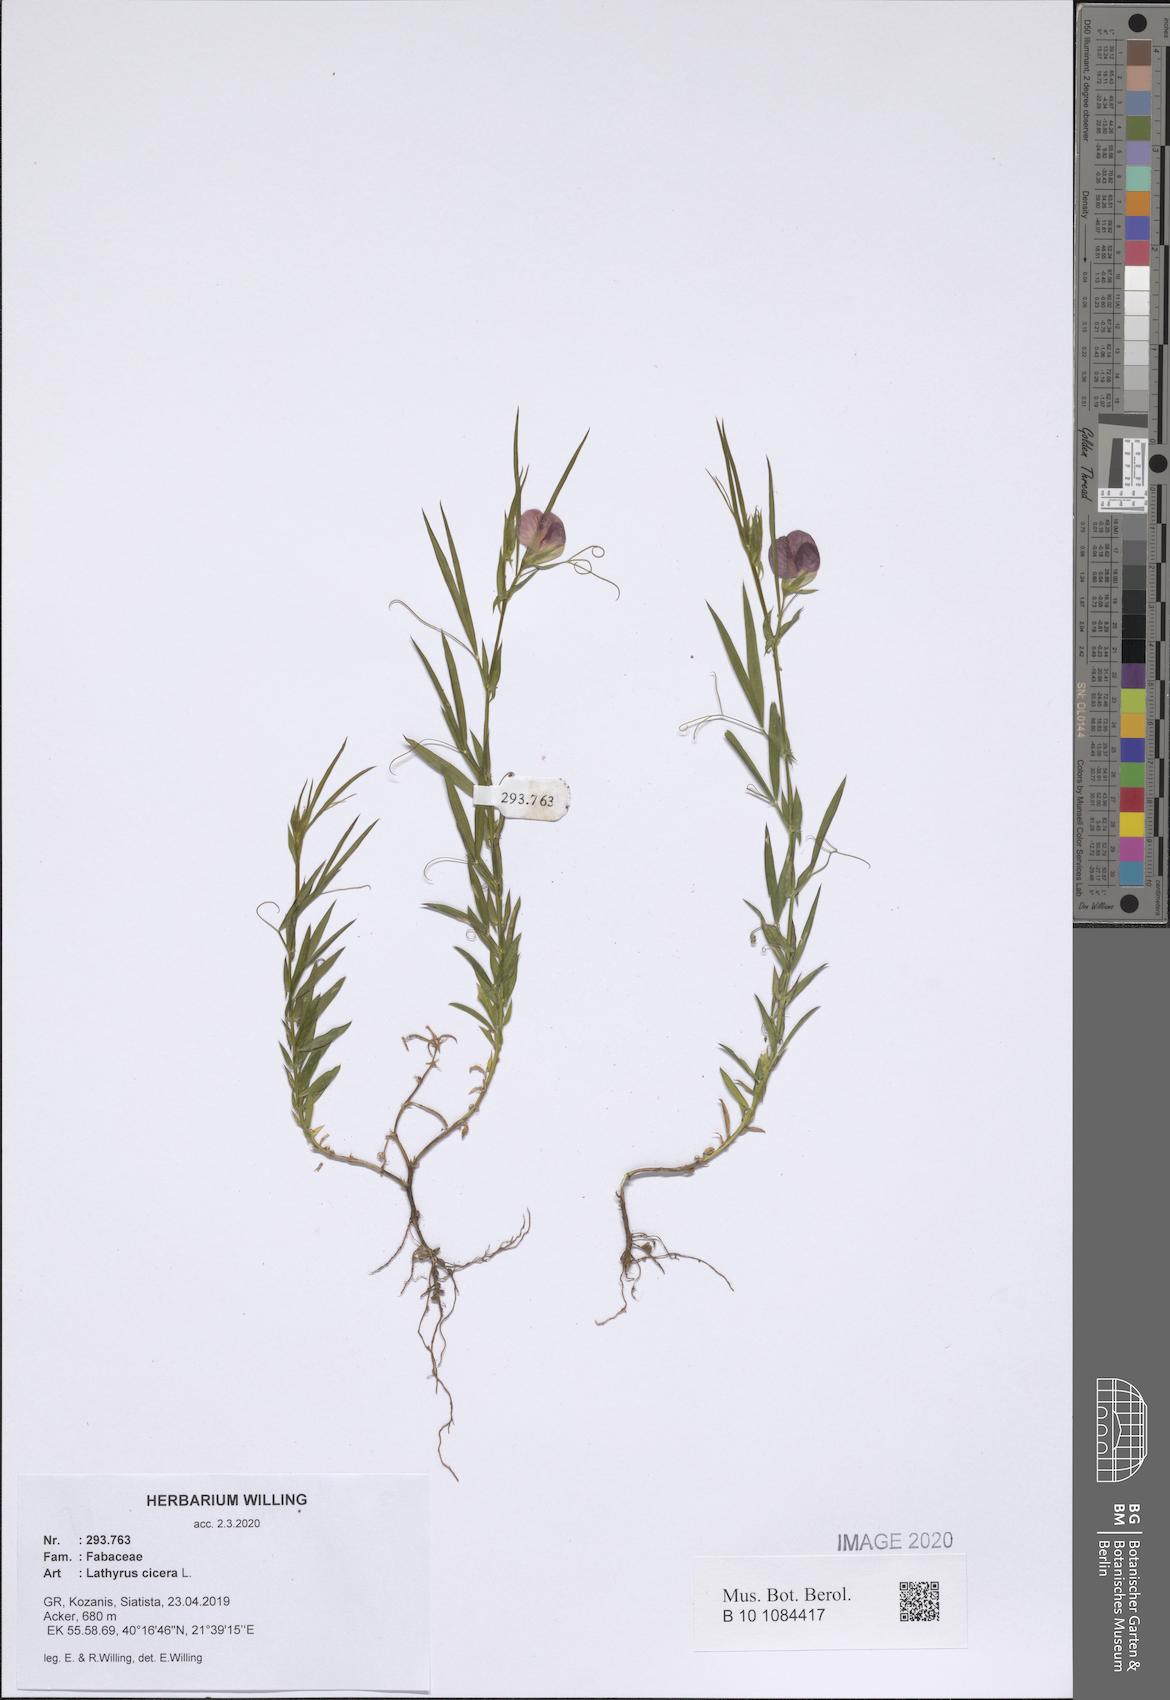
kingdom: Plantae
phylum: Tracheophyta
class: Magnoliopsida
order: Fabales
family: Fabaceae
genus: Lathyrus
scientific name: Lathyrus cicera
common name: Red vetchling
